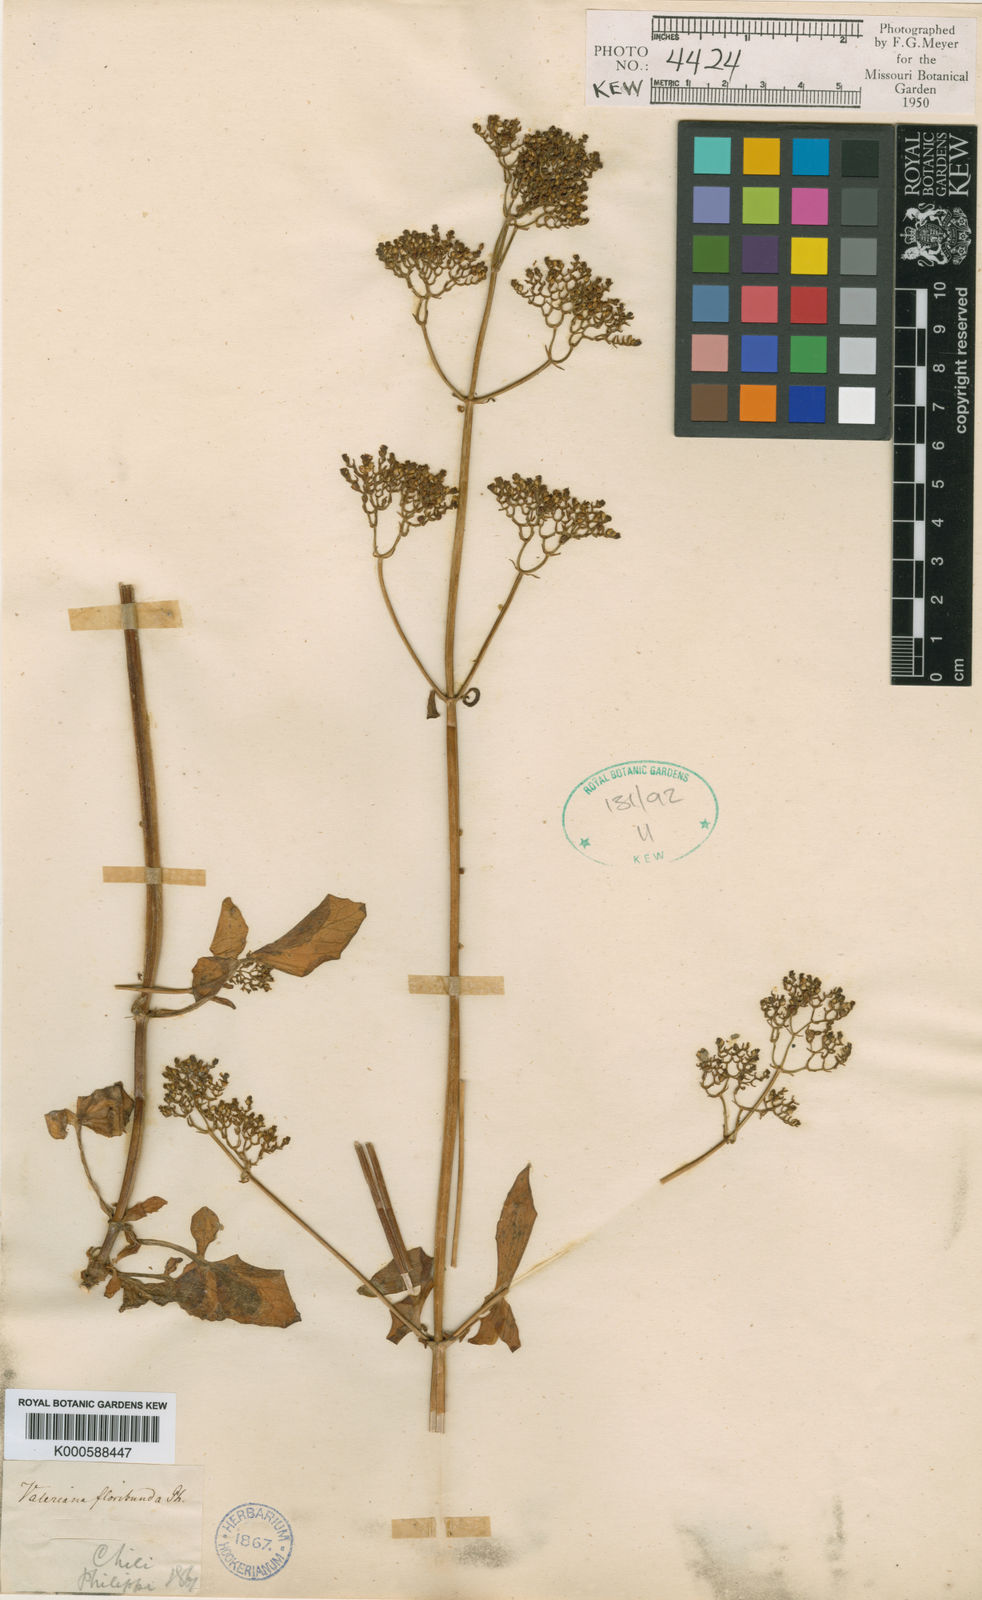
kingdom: Plantae
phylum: Tracheophyta
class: Magnoliopsida
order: Dipsacales
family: Caprifoliaceae
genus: Valeriana
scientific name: Valeriana crispa
